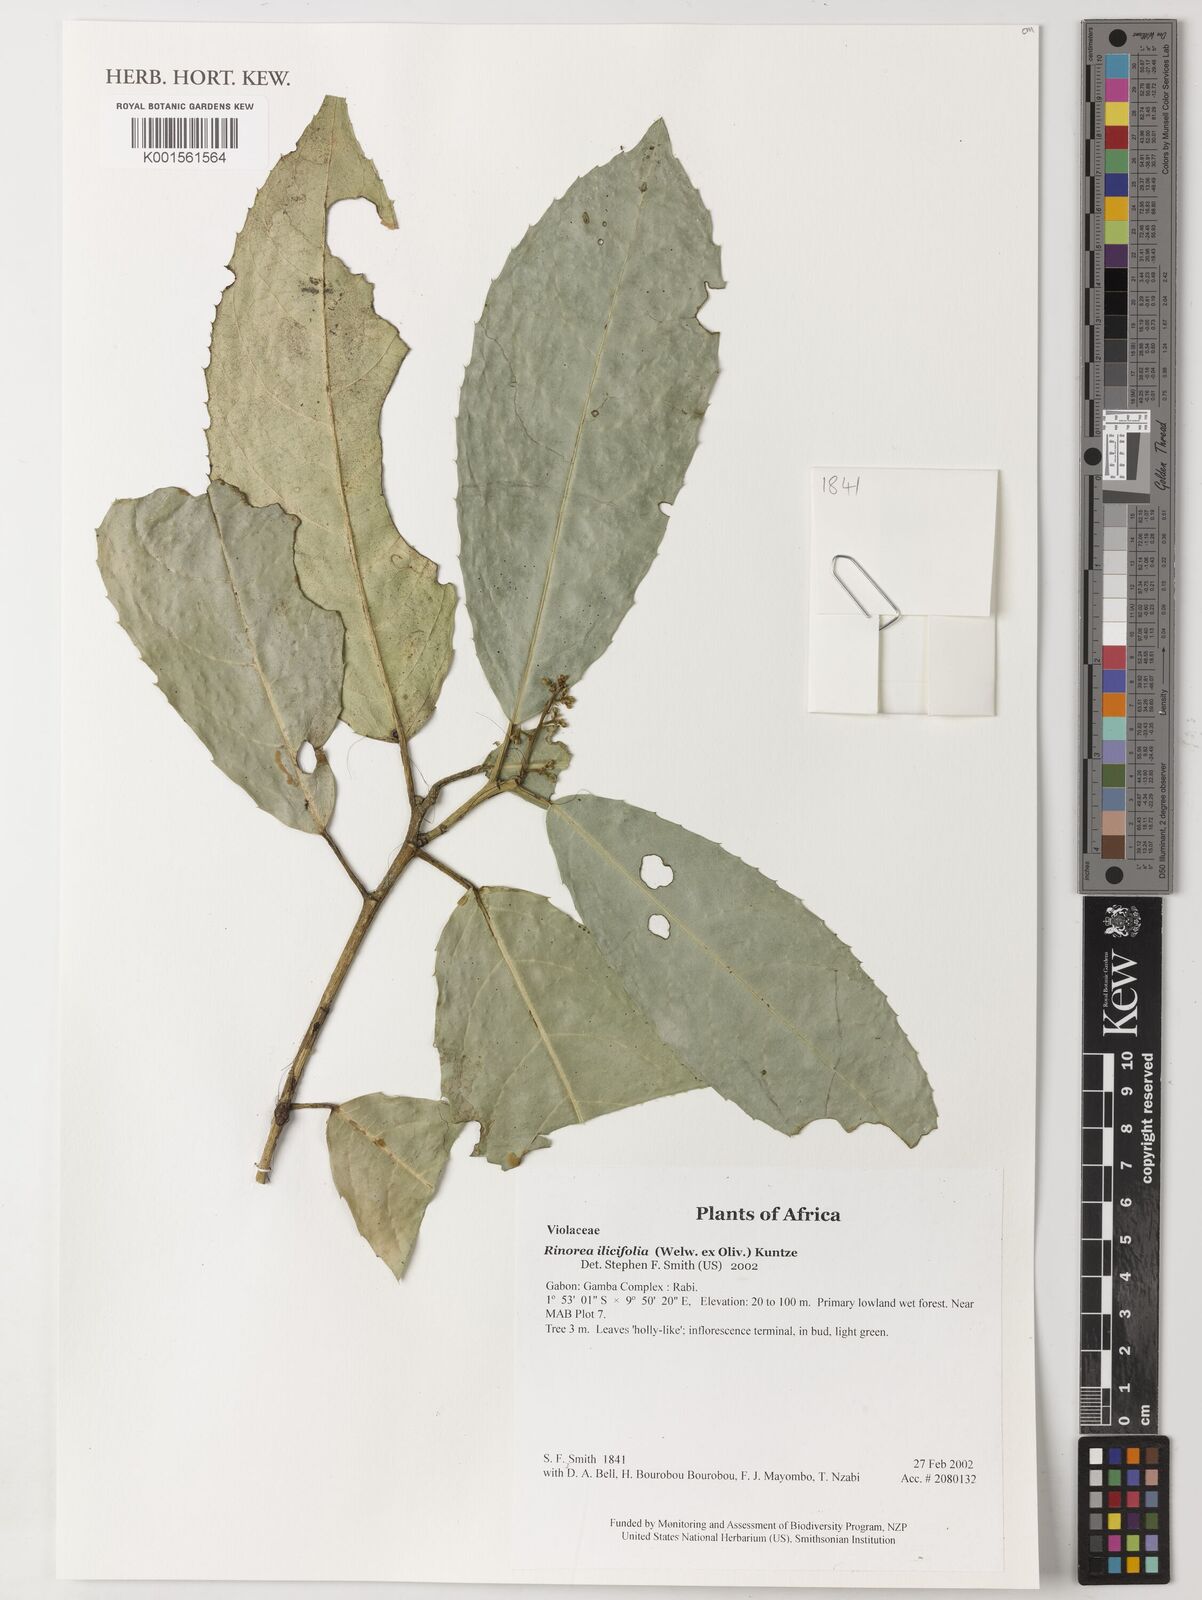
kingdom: Plantae
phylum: Tracheophyta
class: Magnoliopsida
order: Malpighiales
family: Violaceae
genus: Rinorea
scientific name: Rinorea ilicifolia
